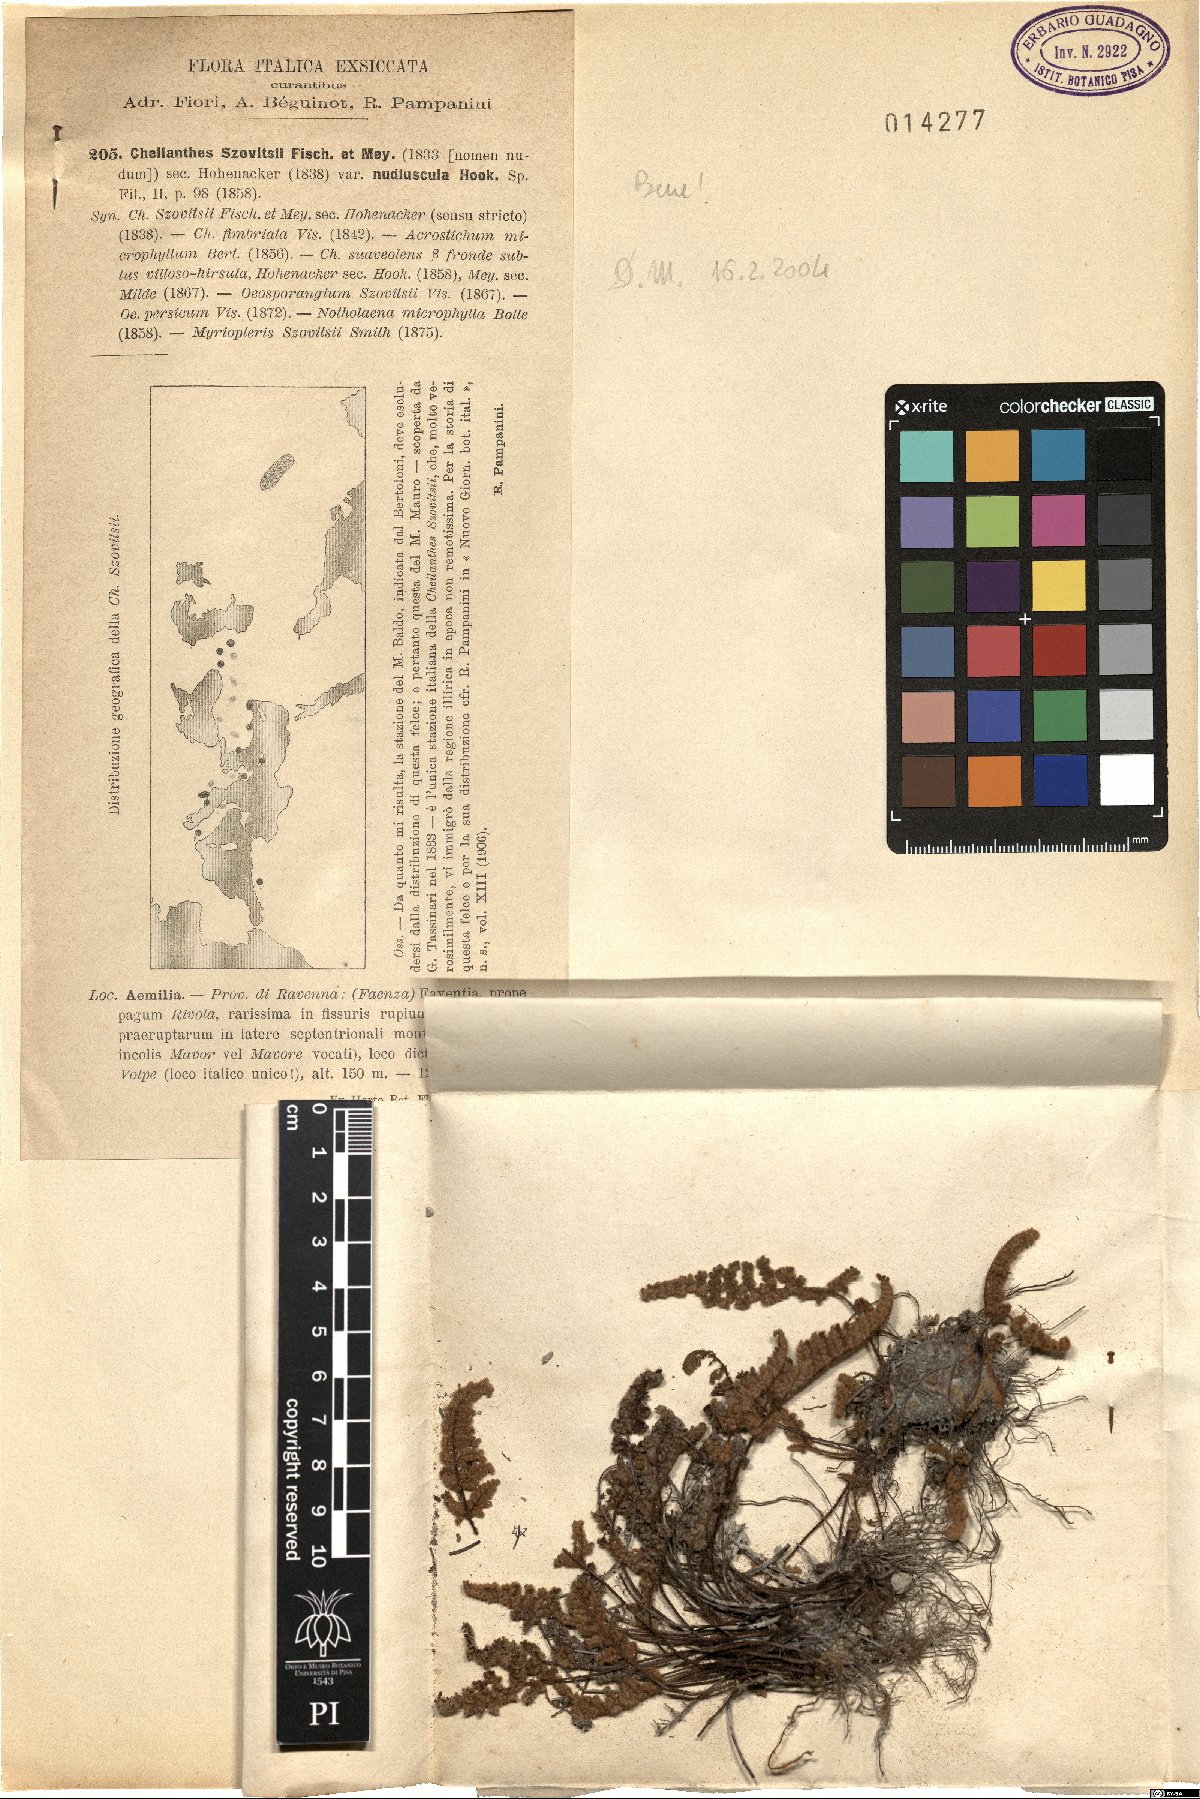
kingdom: Plantae
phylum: Tracheophyta
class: Polypodiopsida
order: Polypodiales
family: Pteridaceae
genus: Oeosporangium
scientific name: Oeosporangium persicum
